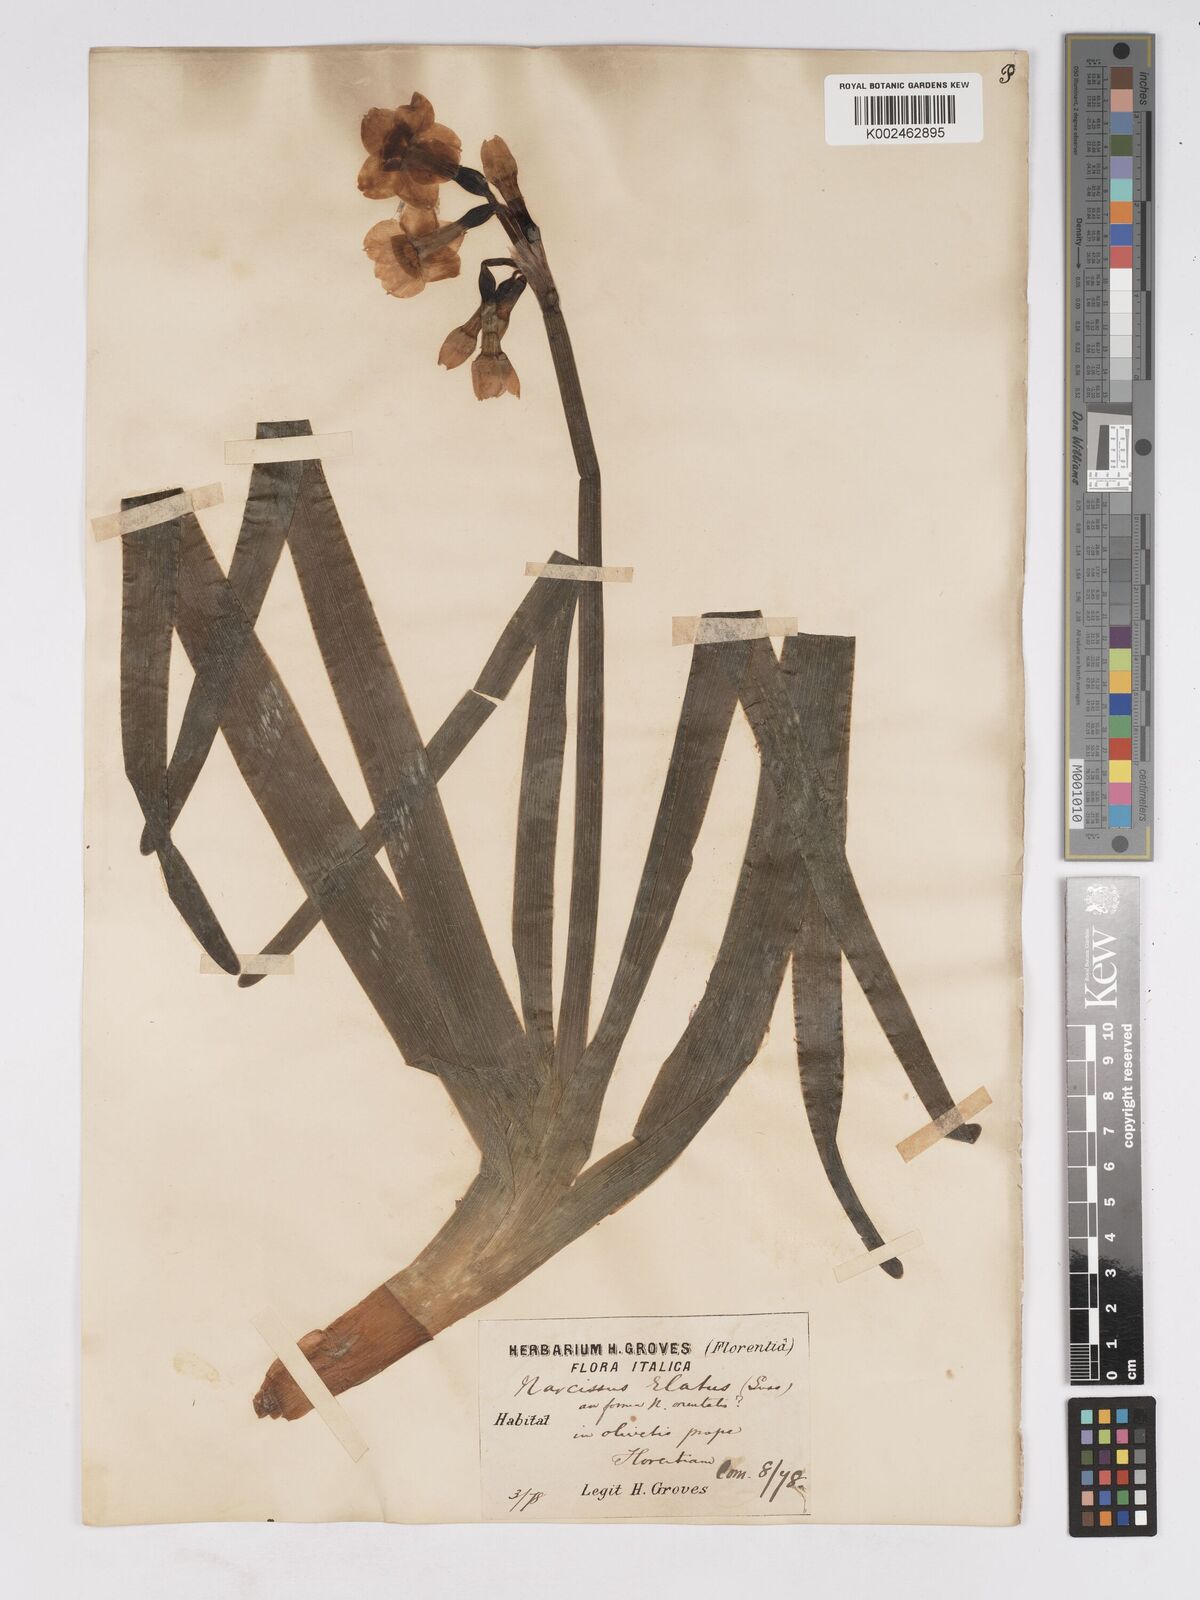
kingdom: Plantae
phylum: Tracheophyta
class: Liliopsida
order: Asparagales
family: Amaryllidaceae
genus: Narcissus
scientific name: Narcissus
